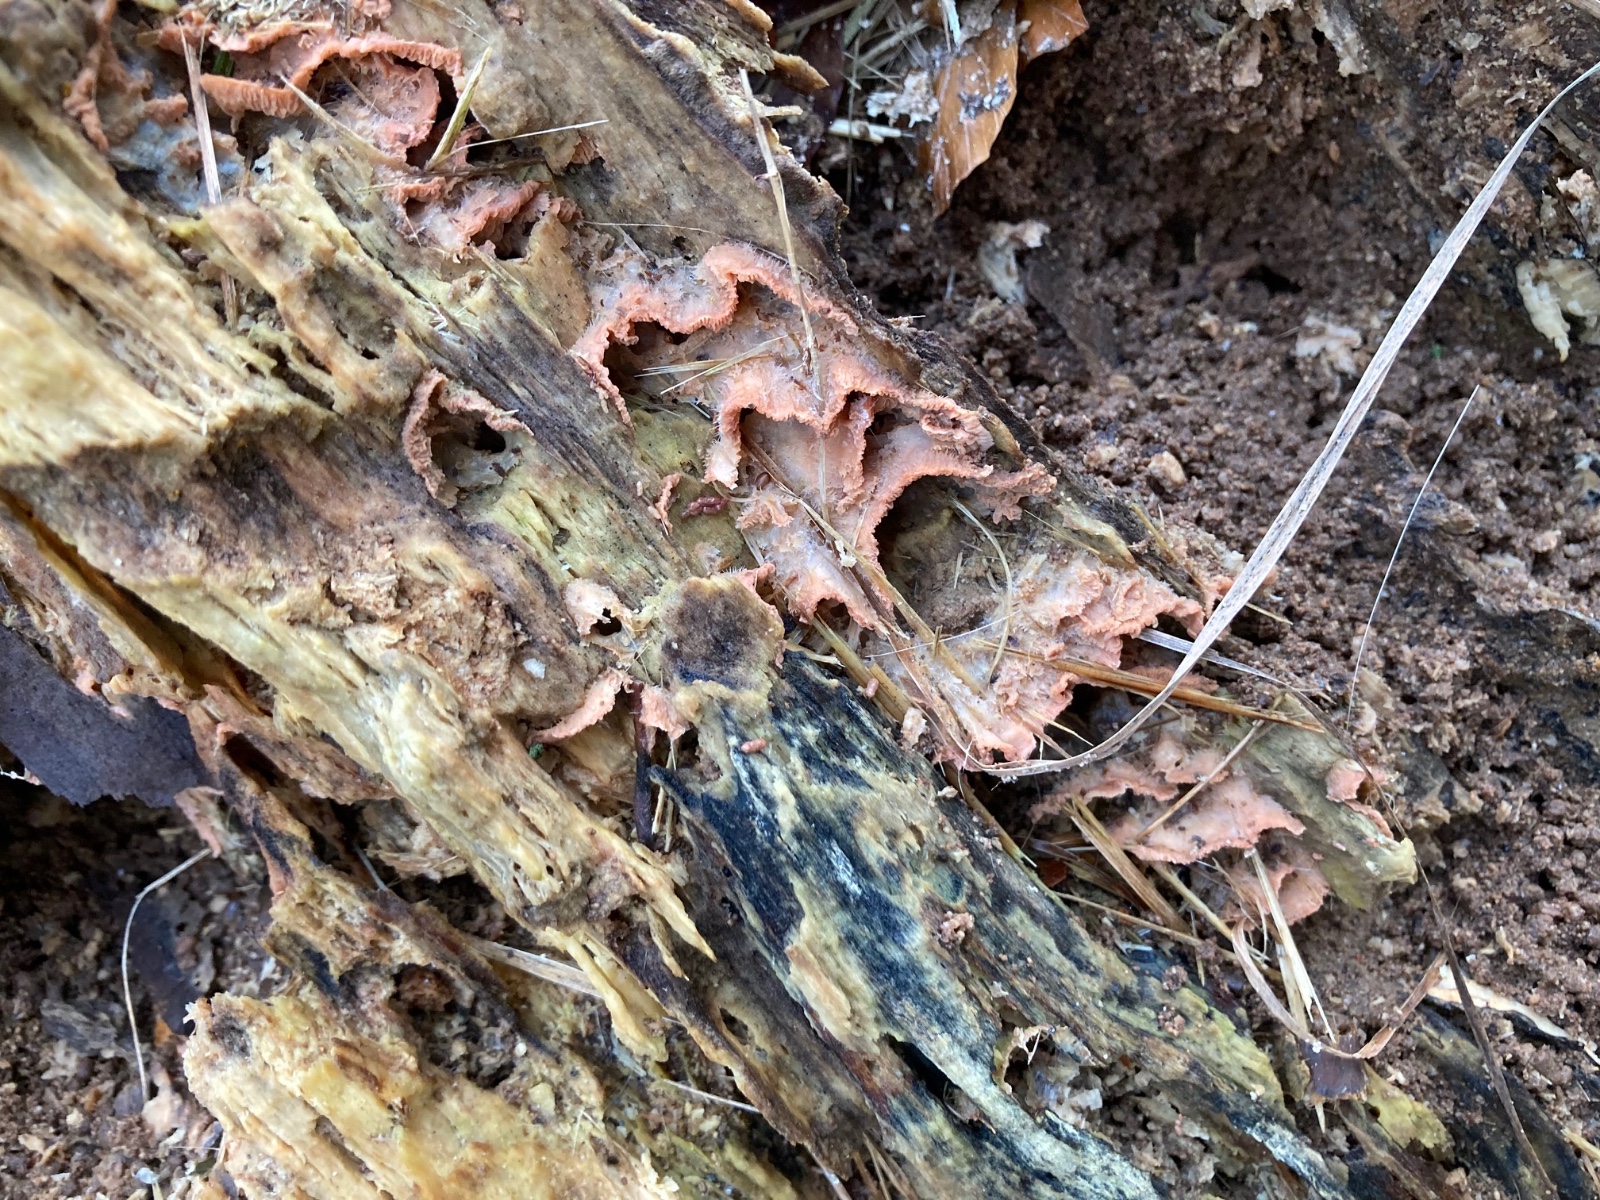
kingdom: Fungi
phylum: Basidiomycota
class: Agaricomycetes
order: Polyporales
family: Meruliaceae
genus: Phlebia
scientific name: Phlebia tremellosa
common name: bævrende åresvamp
